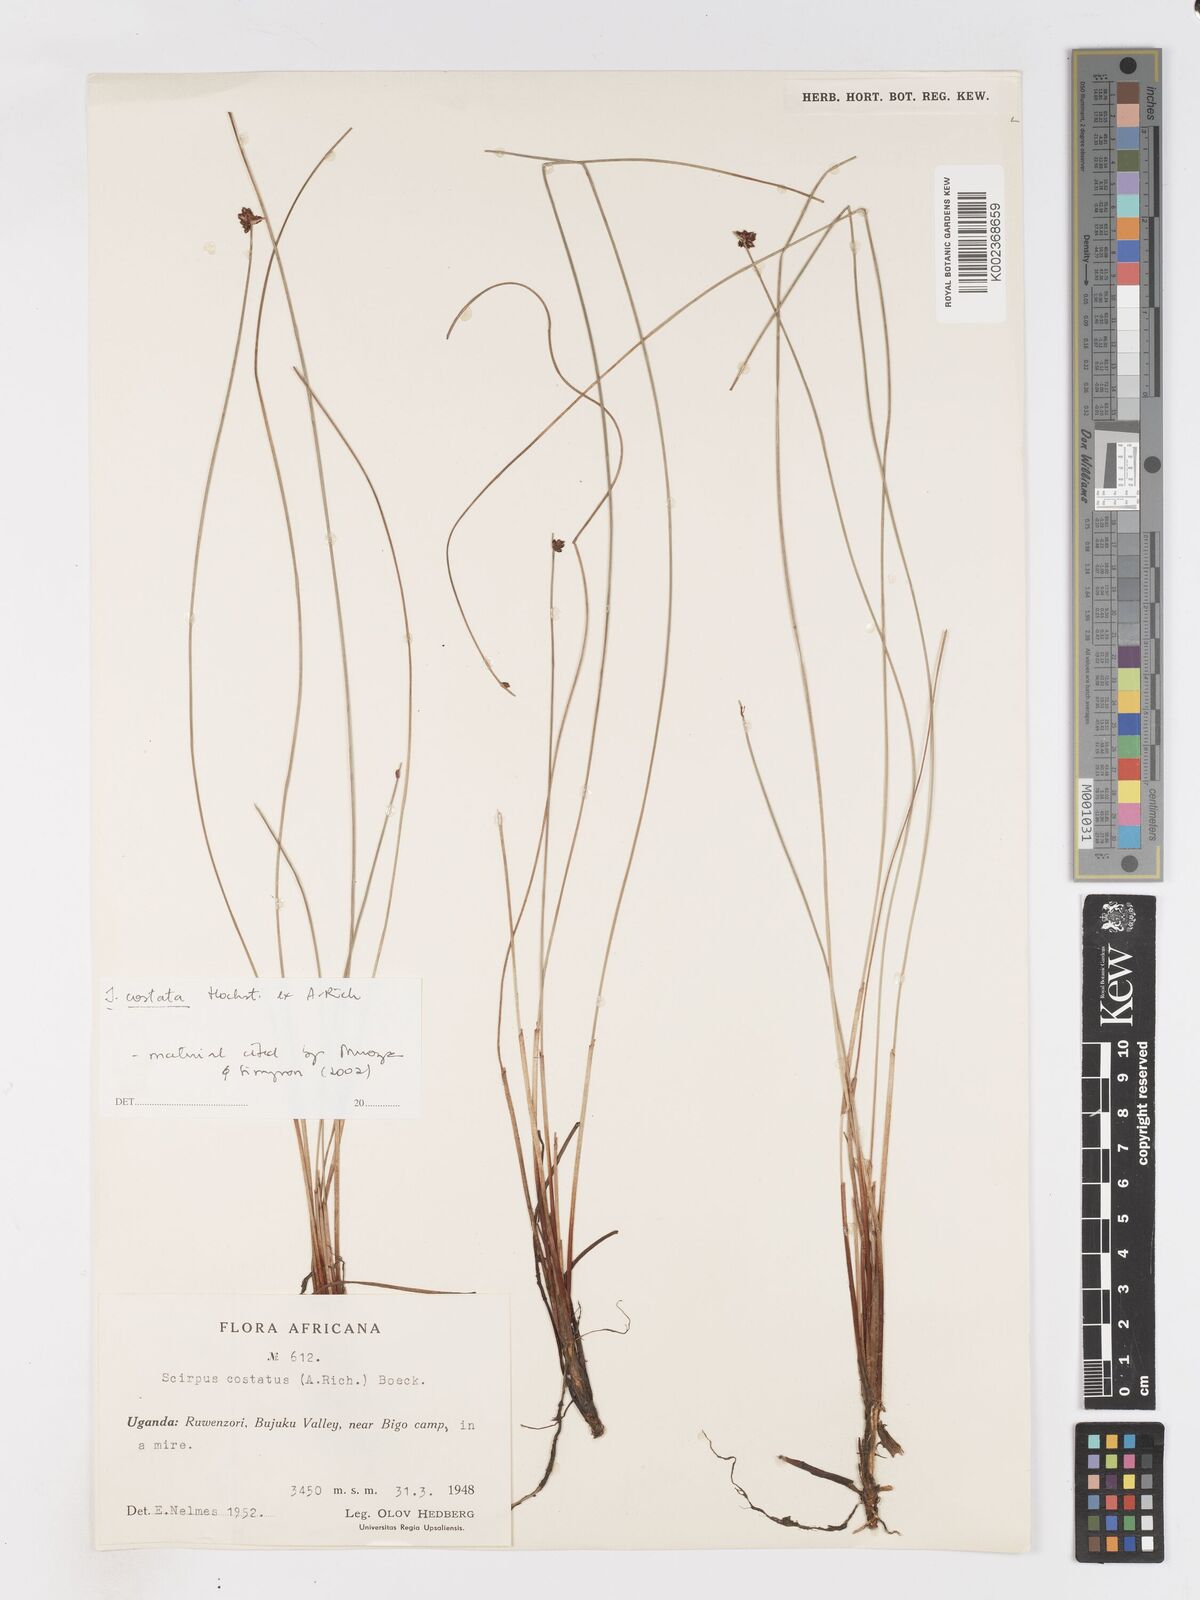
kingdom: Plantae
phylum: Tracheophyta
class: Liliopsida
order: Poales
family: Cyperaceae
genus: Isolepis
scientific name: Isolepis costata
